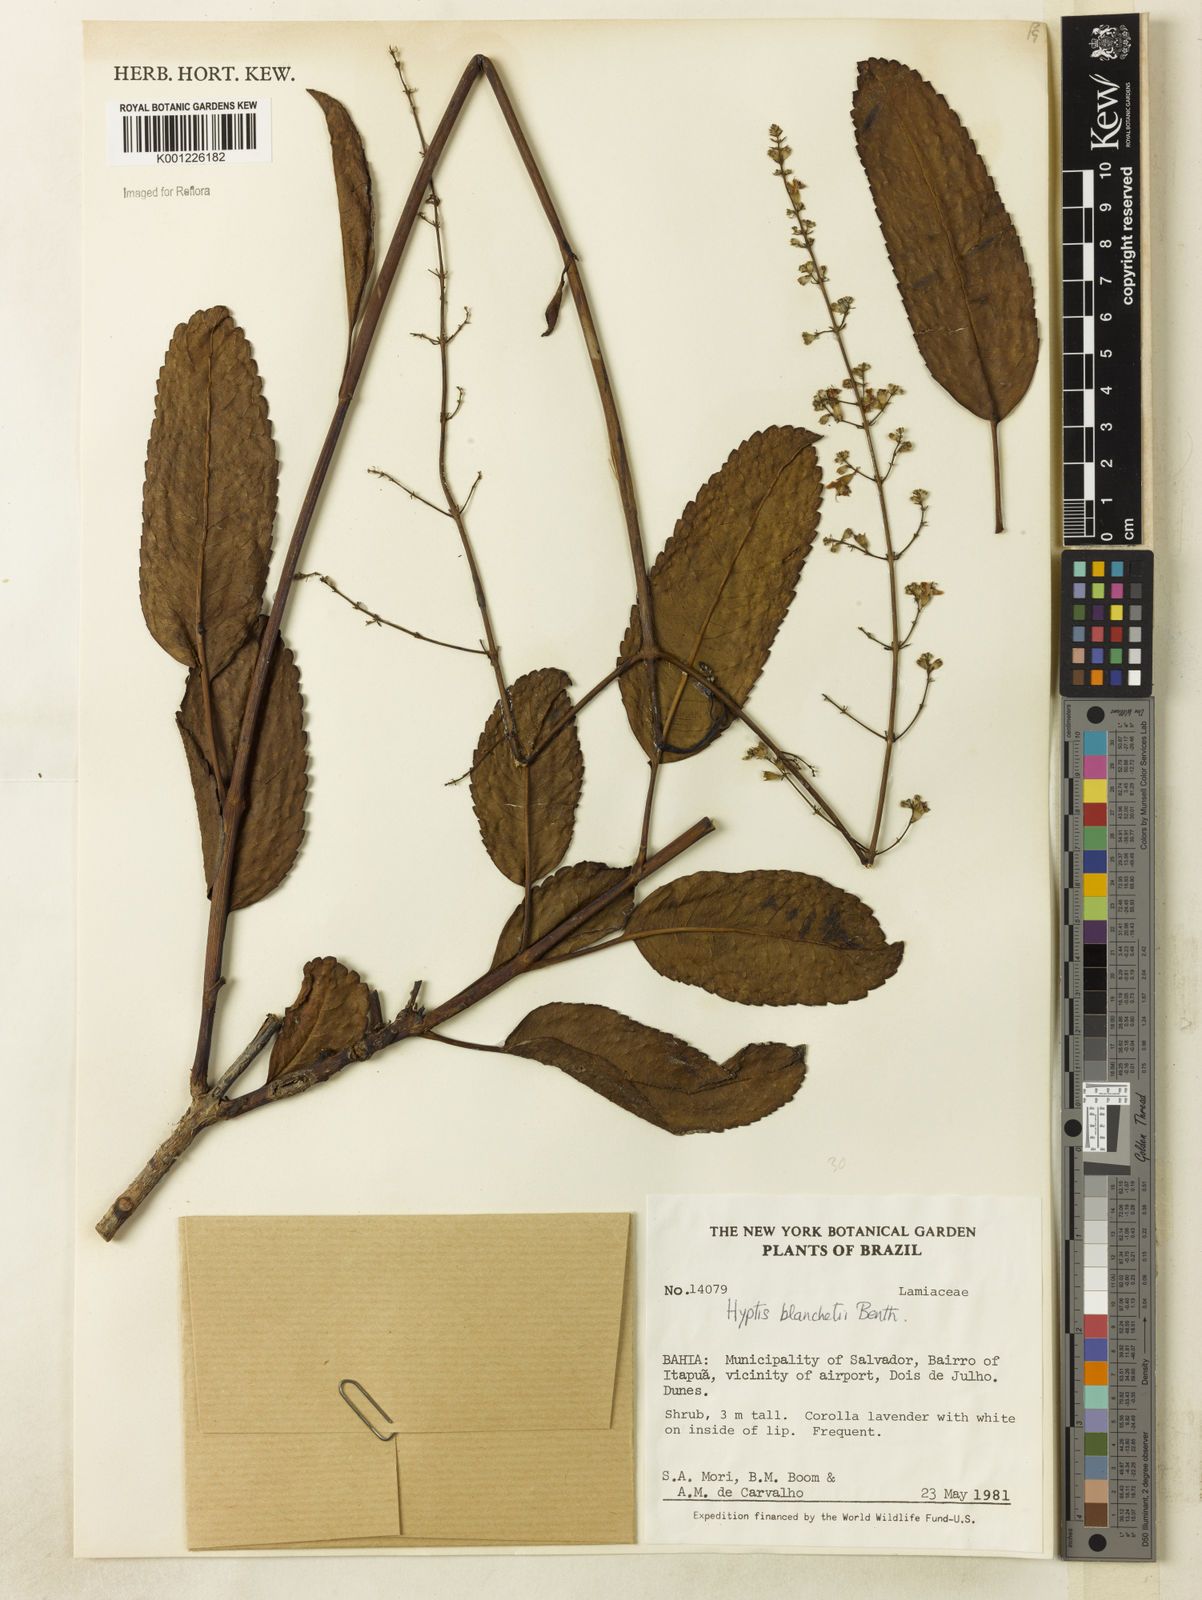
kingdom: Plantae
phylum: Tracheophyta
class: Magnoliopsida
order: Lamiales
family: Lamiaceae
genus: Eriope
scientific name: Eriope blanchetii
